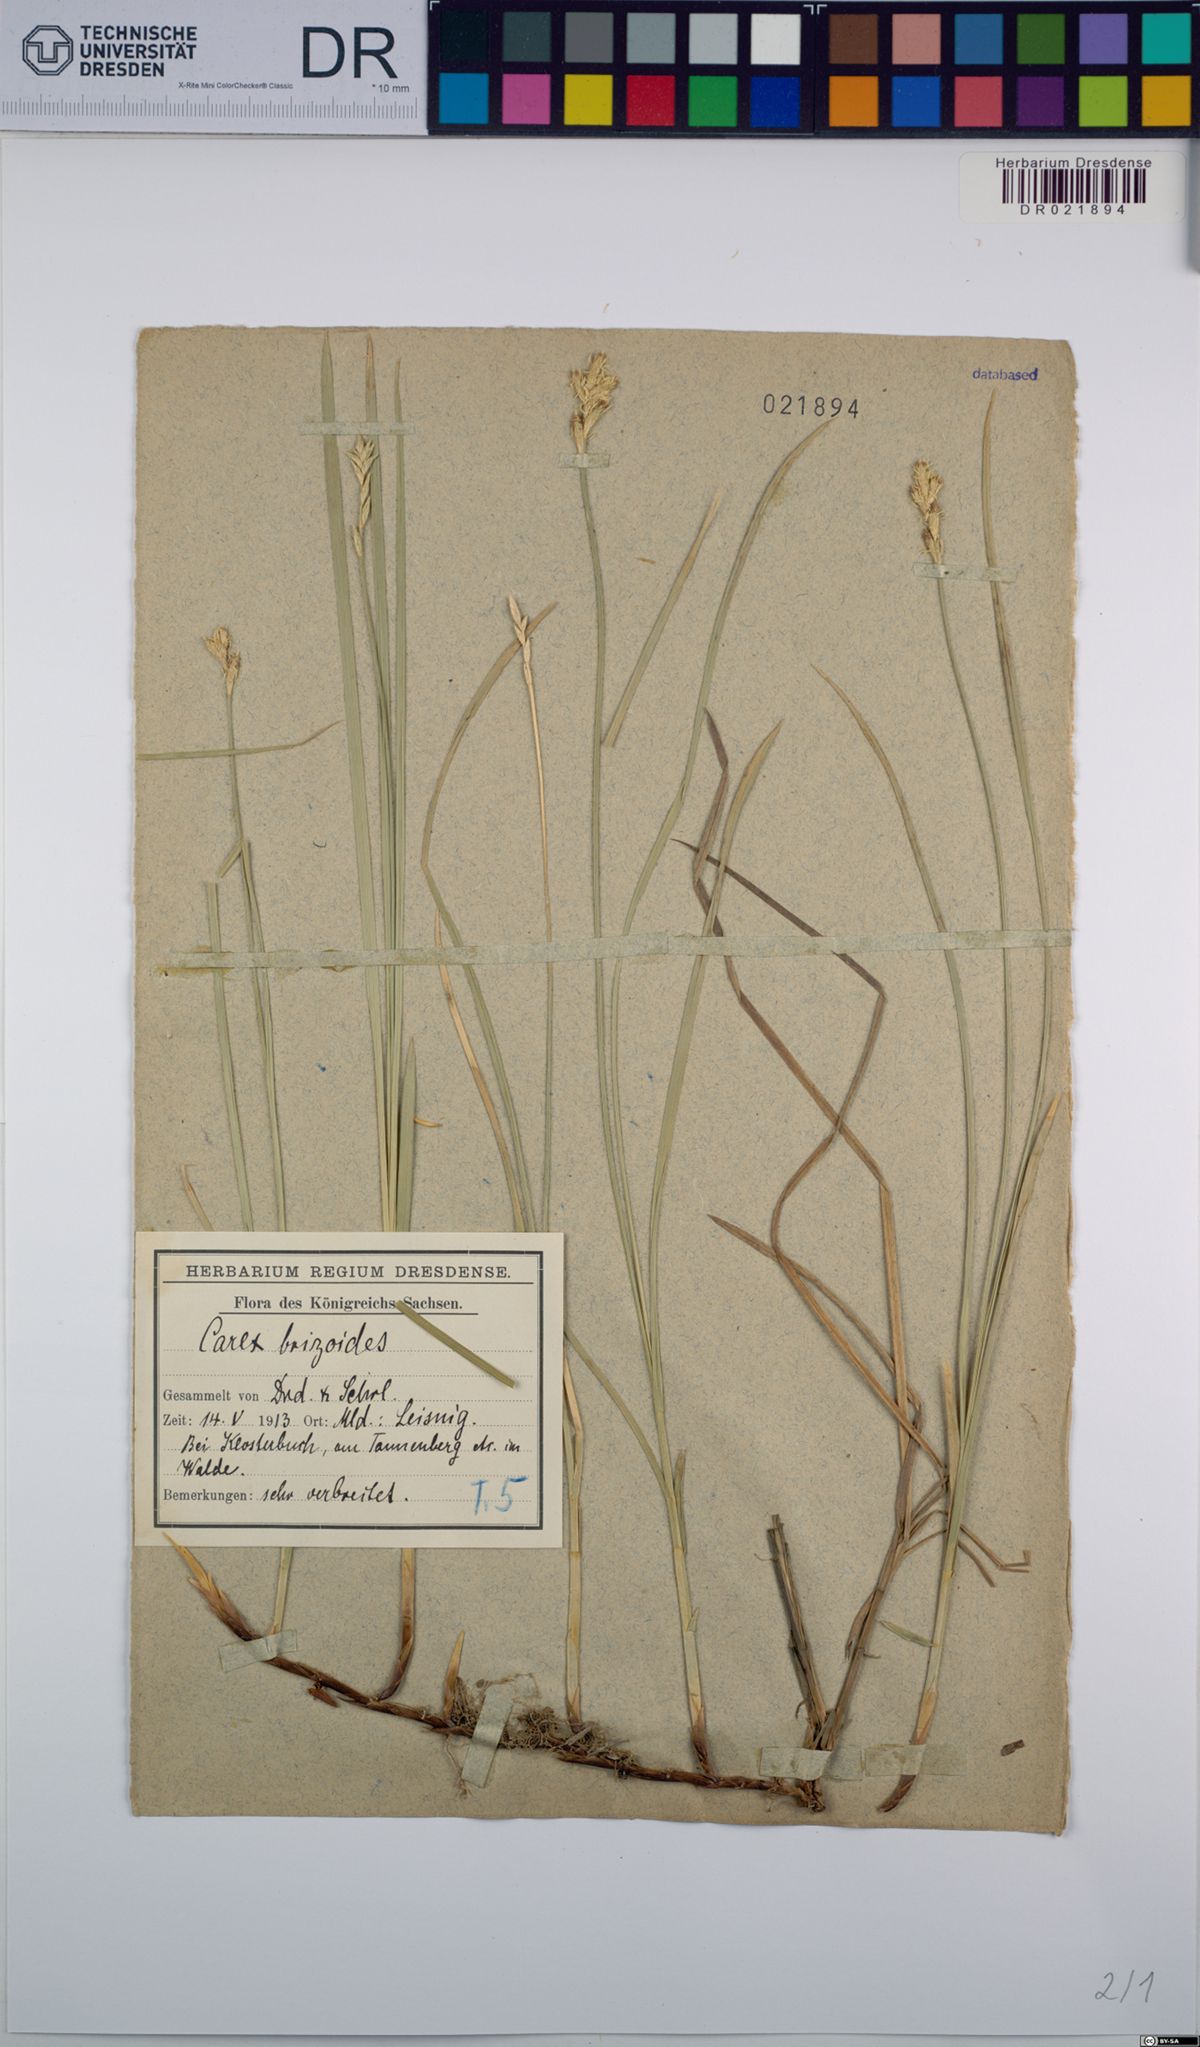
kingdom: Plantae
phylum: Tracheophyta
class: Liliopsida
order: Poales
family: Cyperaceae
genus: Carex
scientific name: Carex brizoides
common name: Quaking-grass sedge
